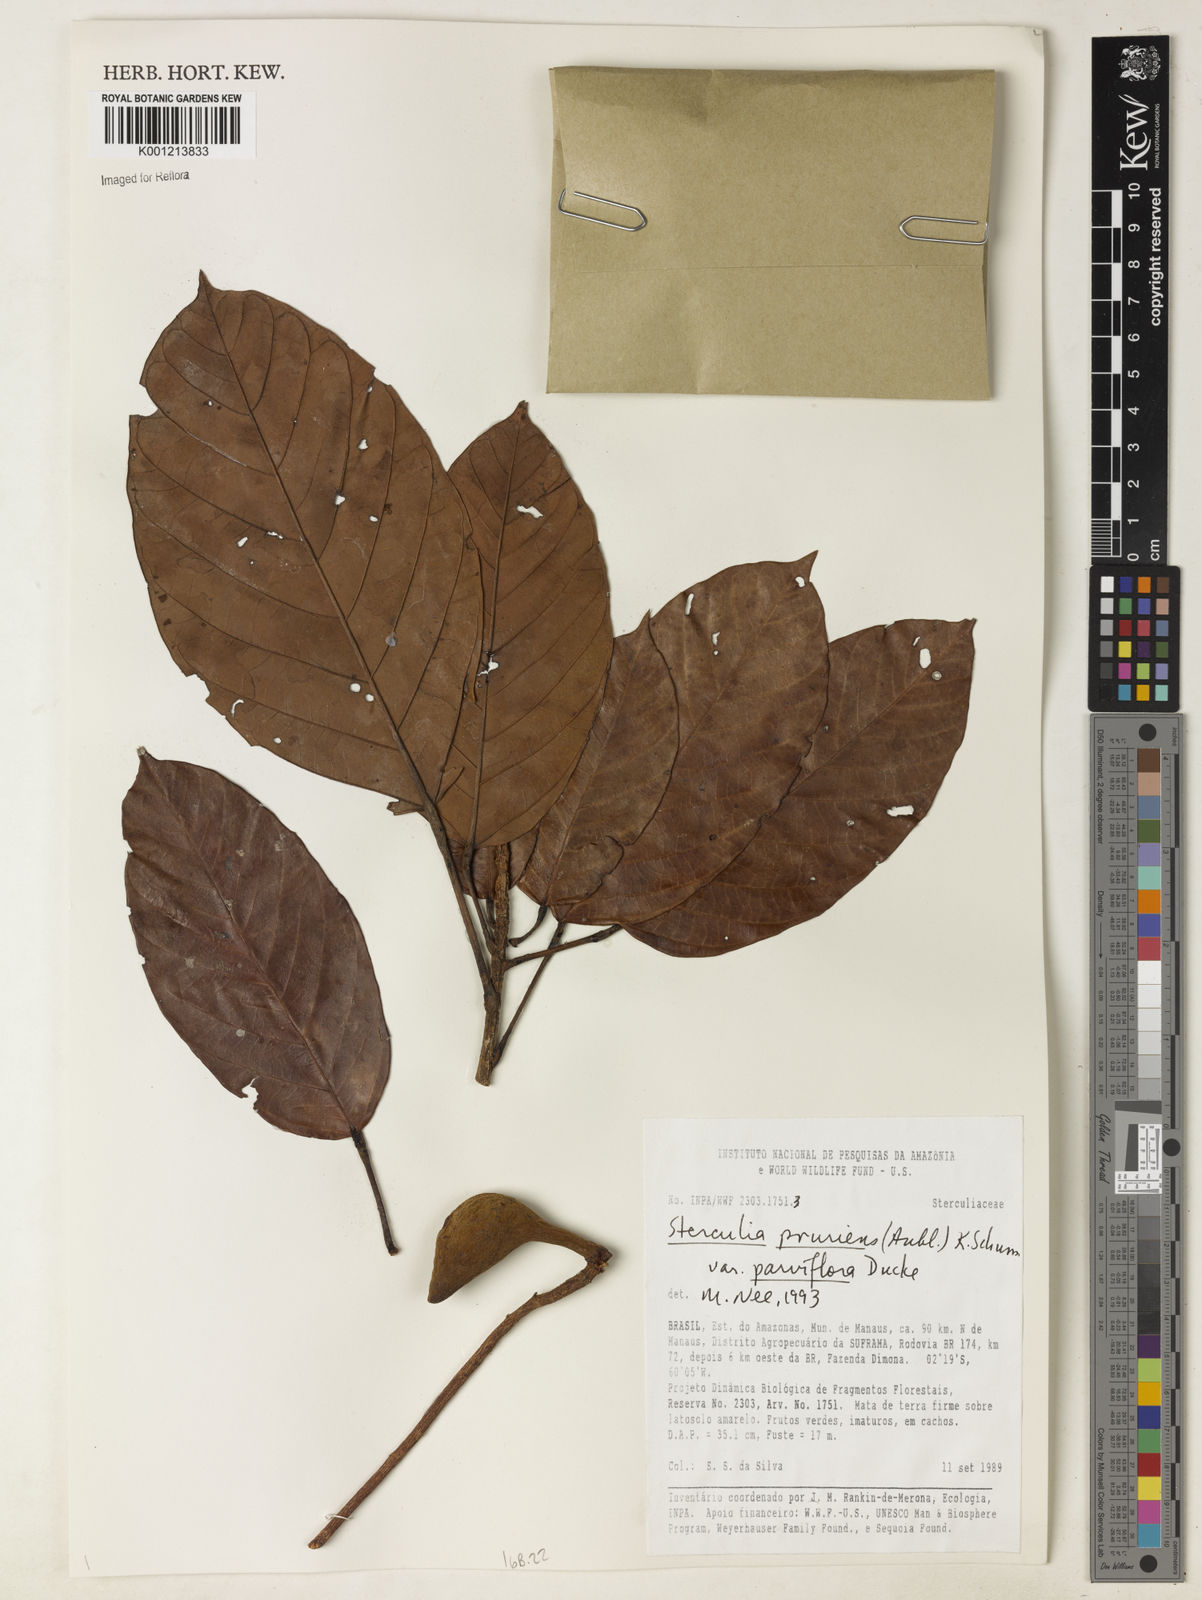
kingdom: Plantae
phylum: Tracheophyta
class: Magnoliopsida
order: Malvales
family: Malvaceae
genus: Sterculia
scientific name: Sterculia pruriens
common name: Grand mahot
